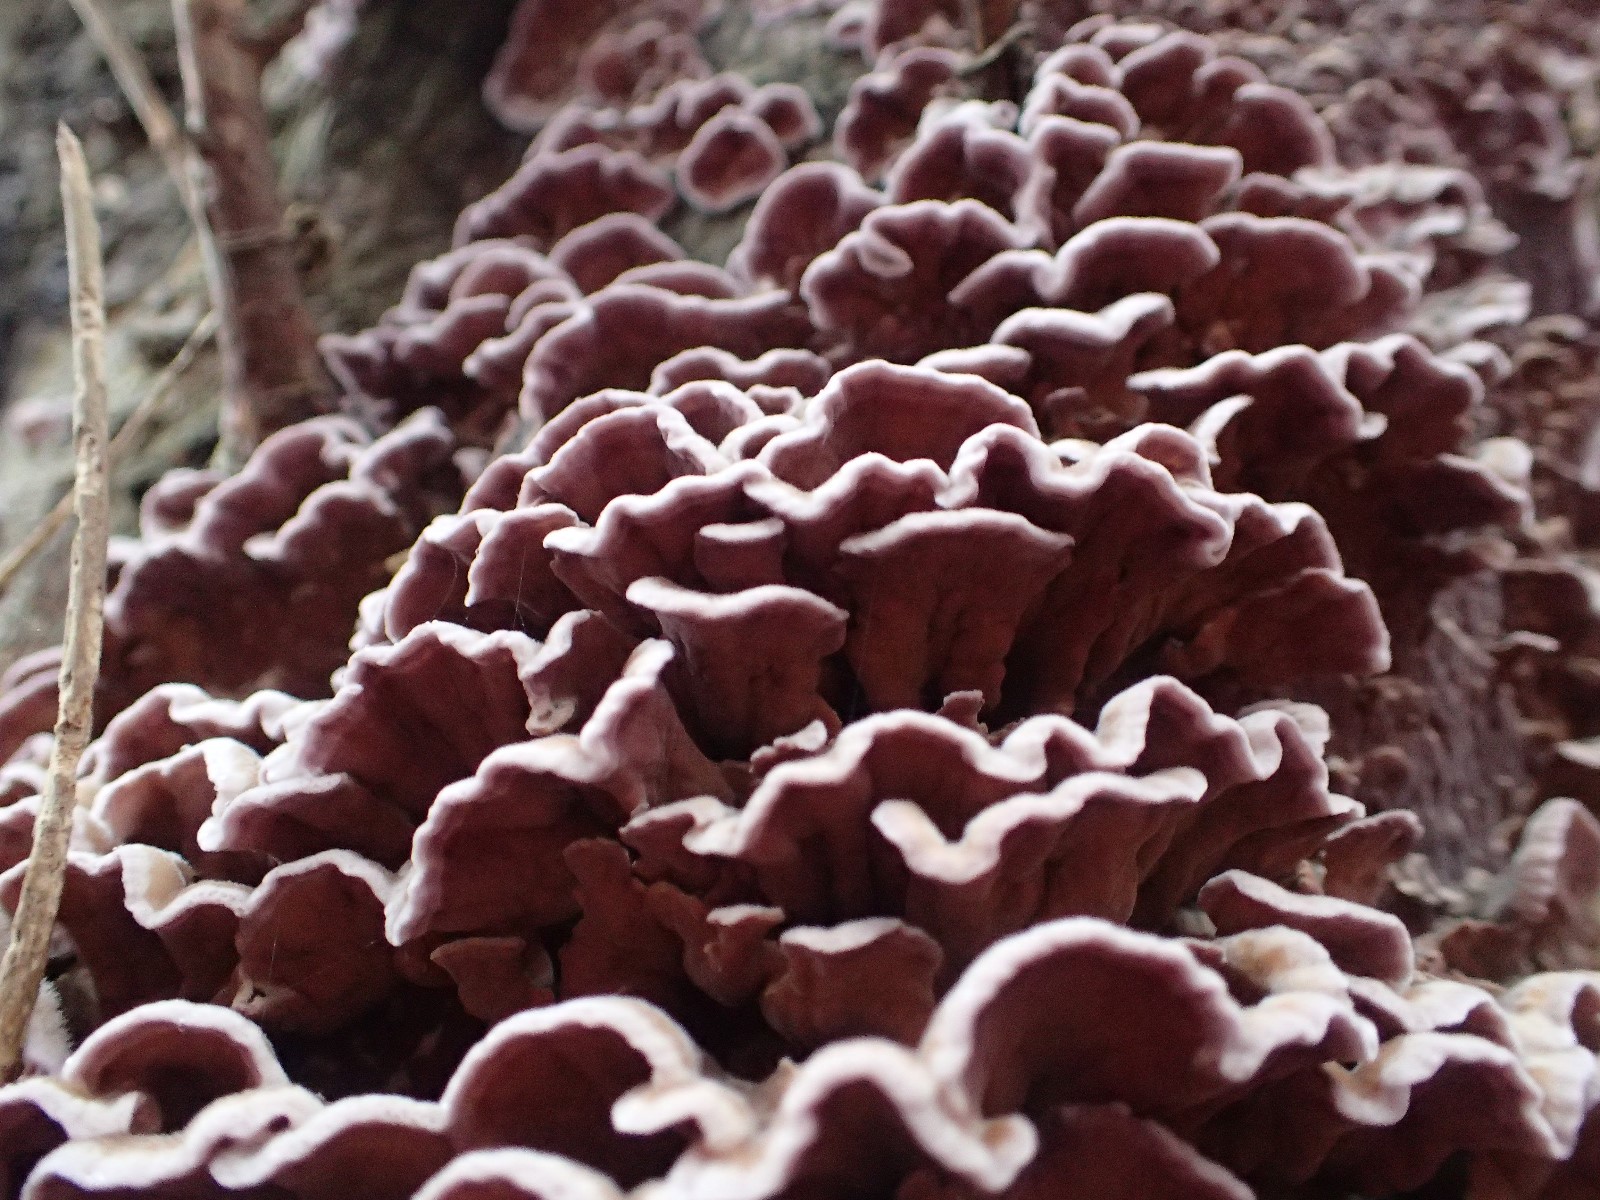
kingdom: Fungi
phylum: Basidiomycota
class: Agaricomycetes
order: Agaricales
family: Cyphellaceae
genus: Chondrostereum
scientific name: Chondrostereum purpureum
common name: purpurlædersvamp
